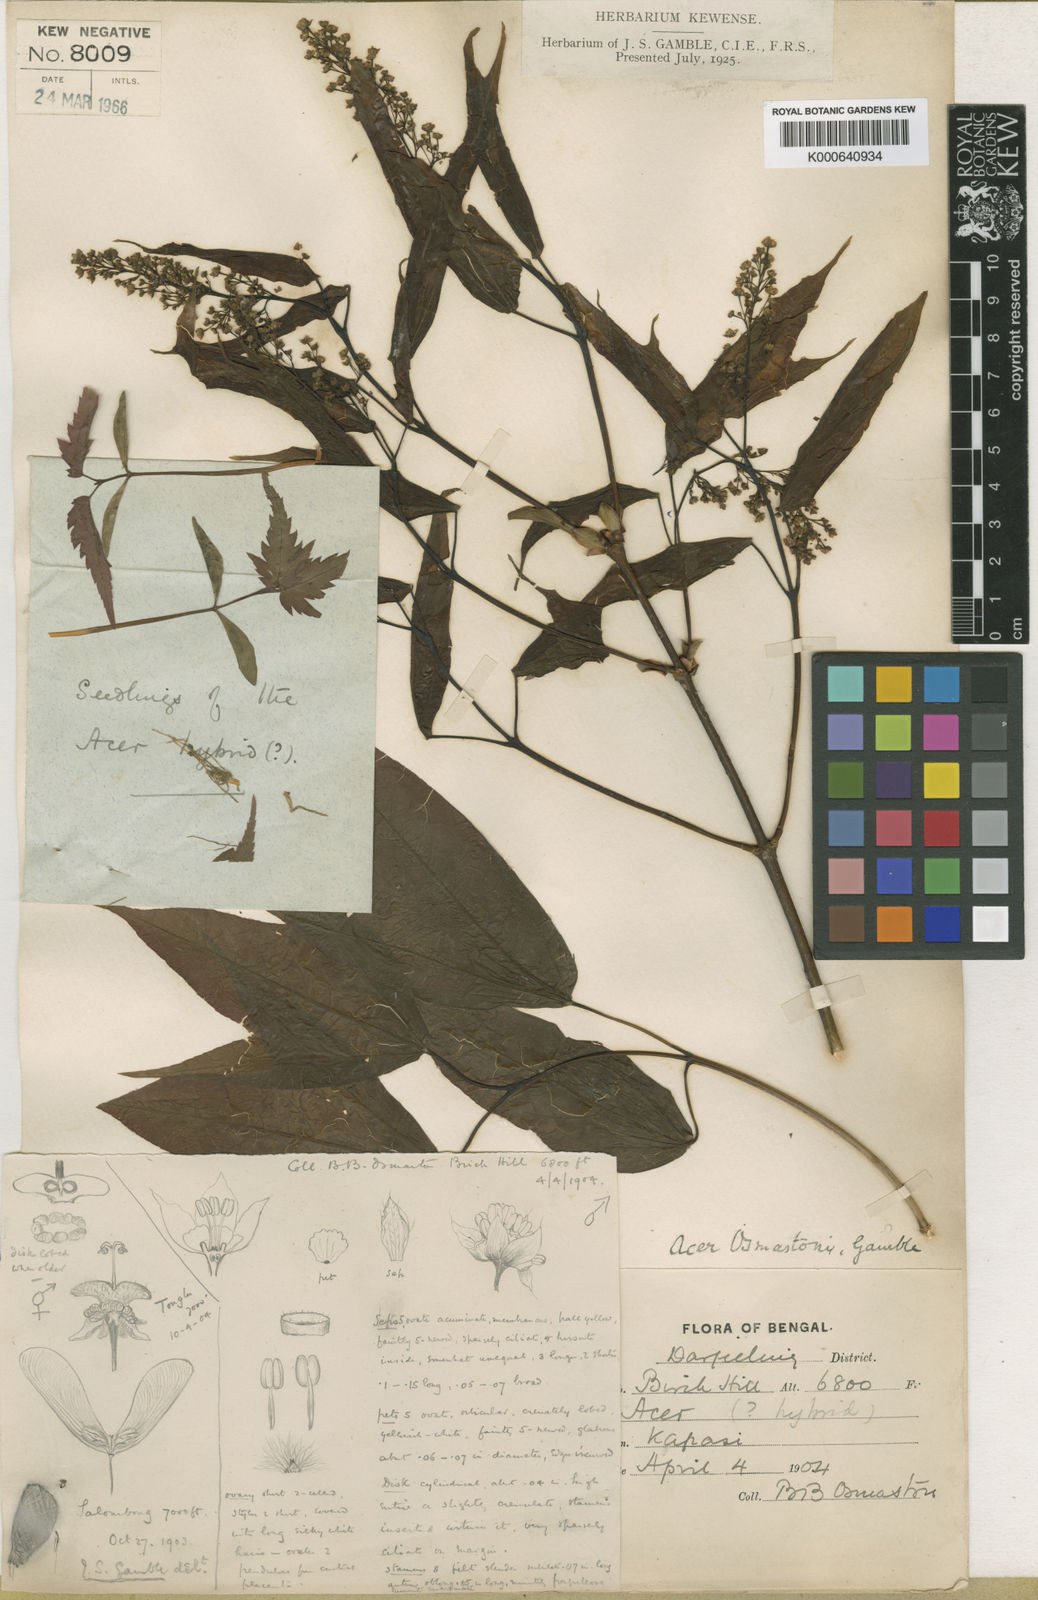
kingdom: Plantae
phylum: Tracheophyta
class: Magnoliopsida
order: Sapindales
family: Sapindaceae
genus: Acer
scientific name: Acer calcaratum
